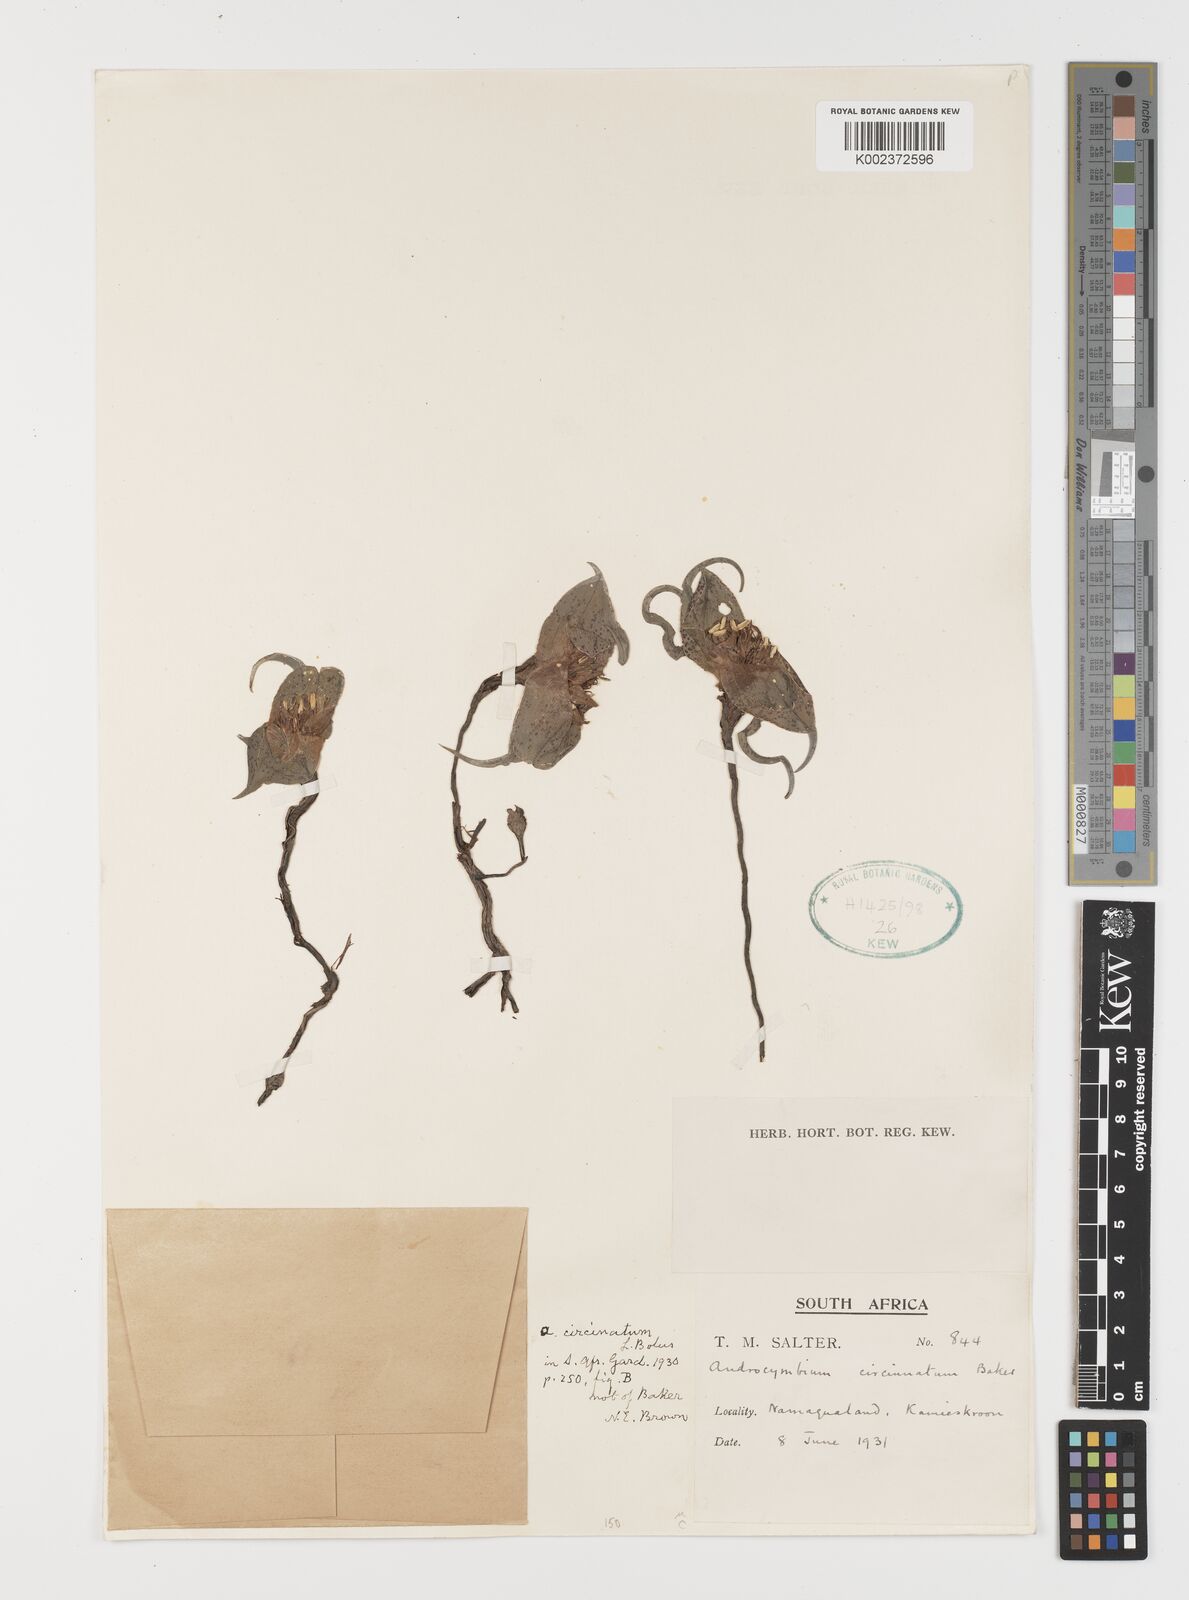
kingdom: Plantae
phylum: Tracheophyta
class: Liliopsida
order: Liliales
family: Colchicaceae
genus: Colchicum
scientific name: Colchicum circinatum
